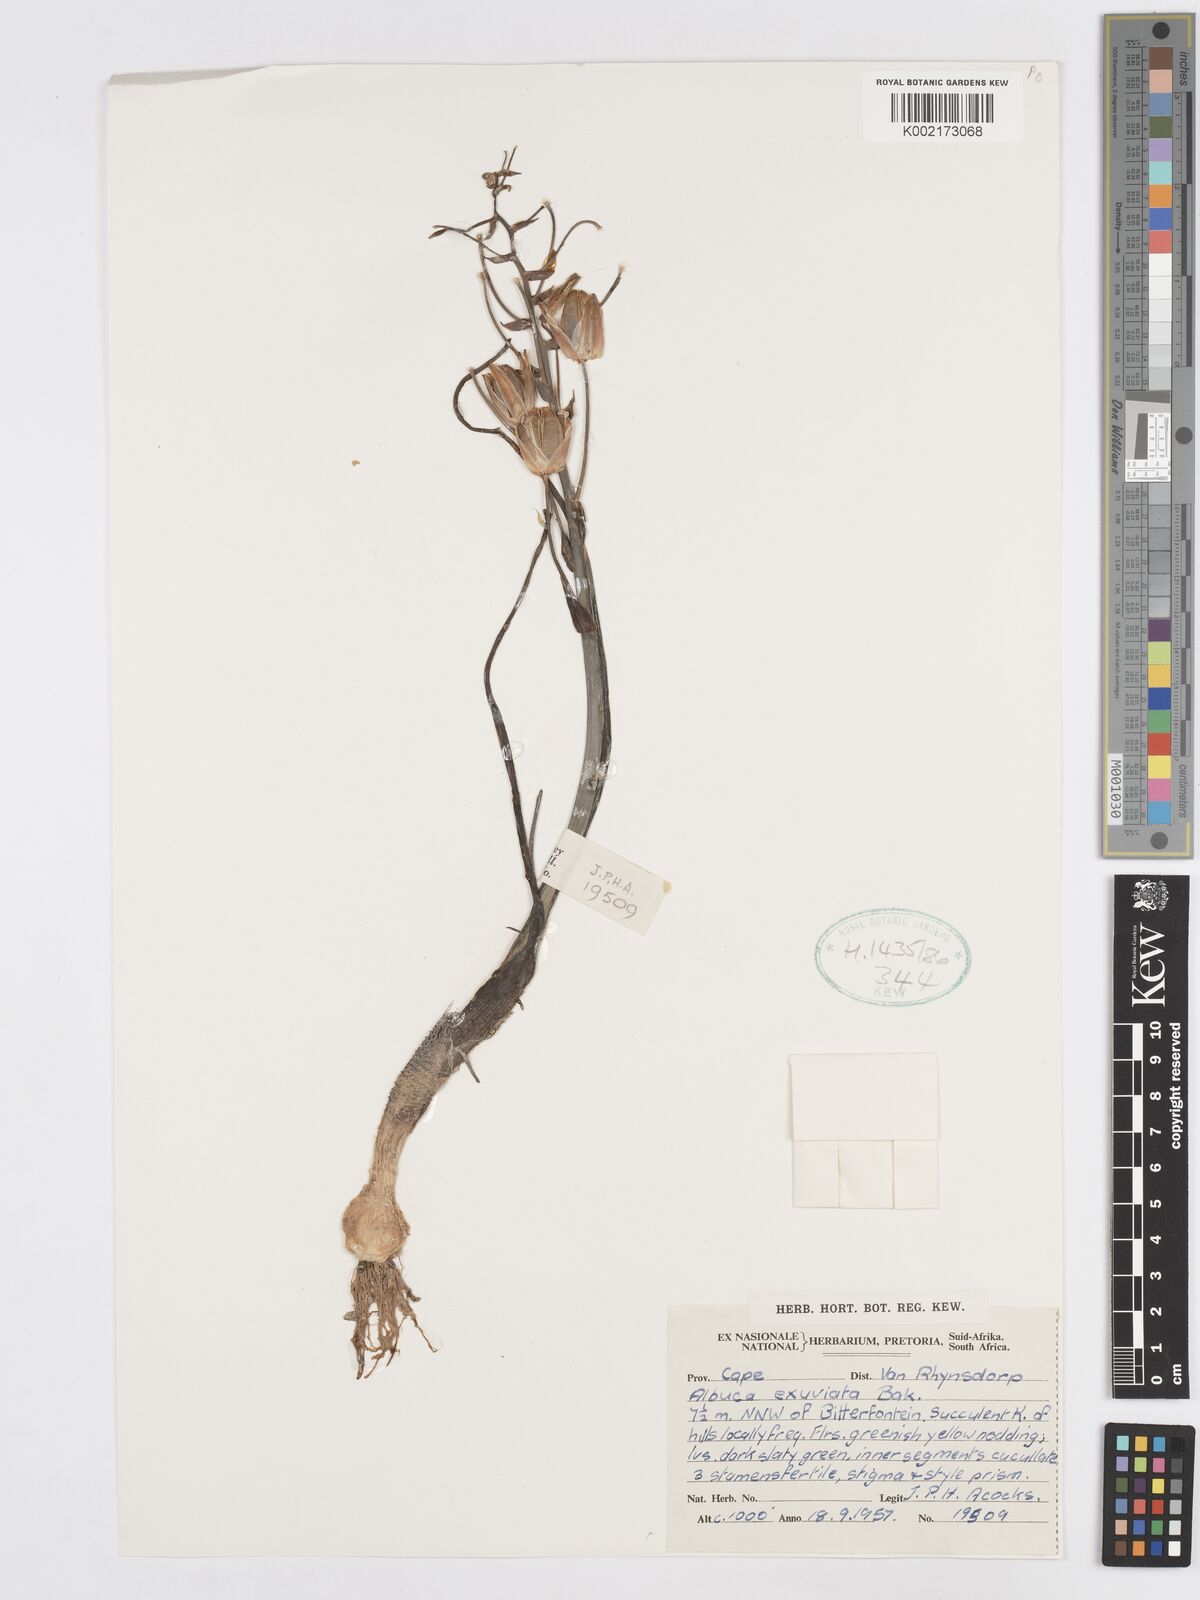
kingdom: Plantae
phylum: Tracheophyta
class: Liliopsida
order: Asparagales
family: Asparagaceae
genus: Albuca
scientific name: Albuca collina
